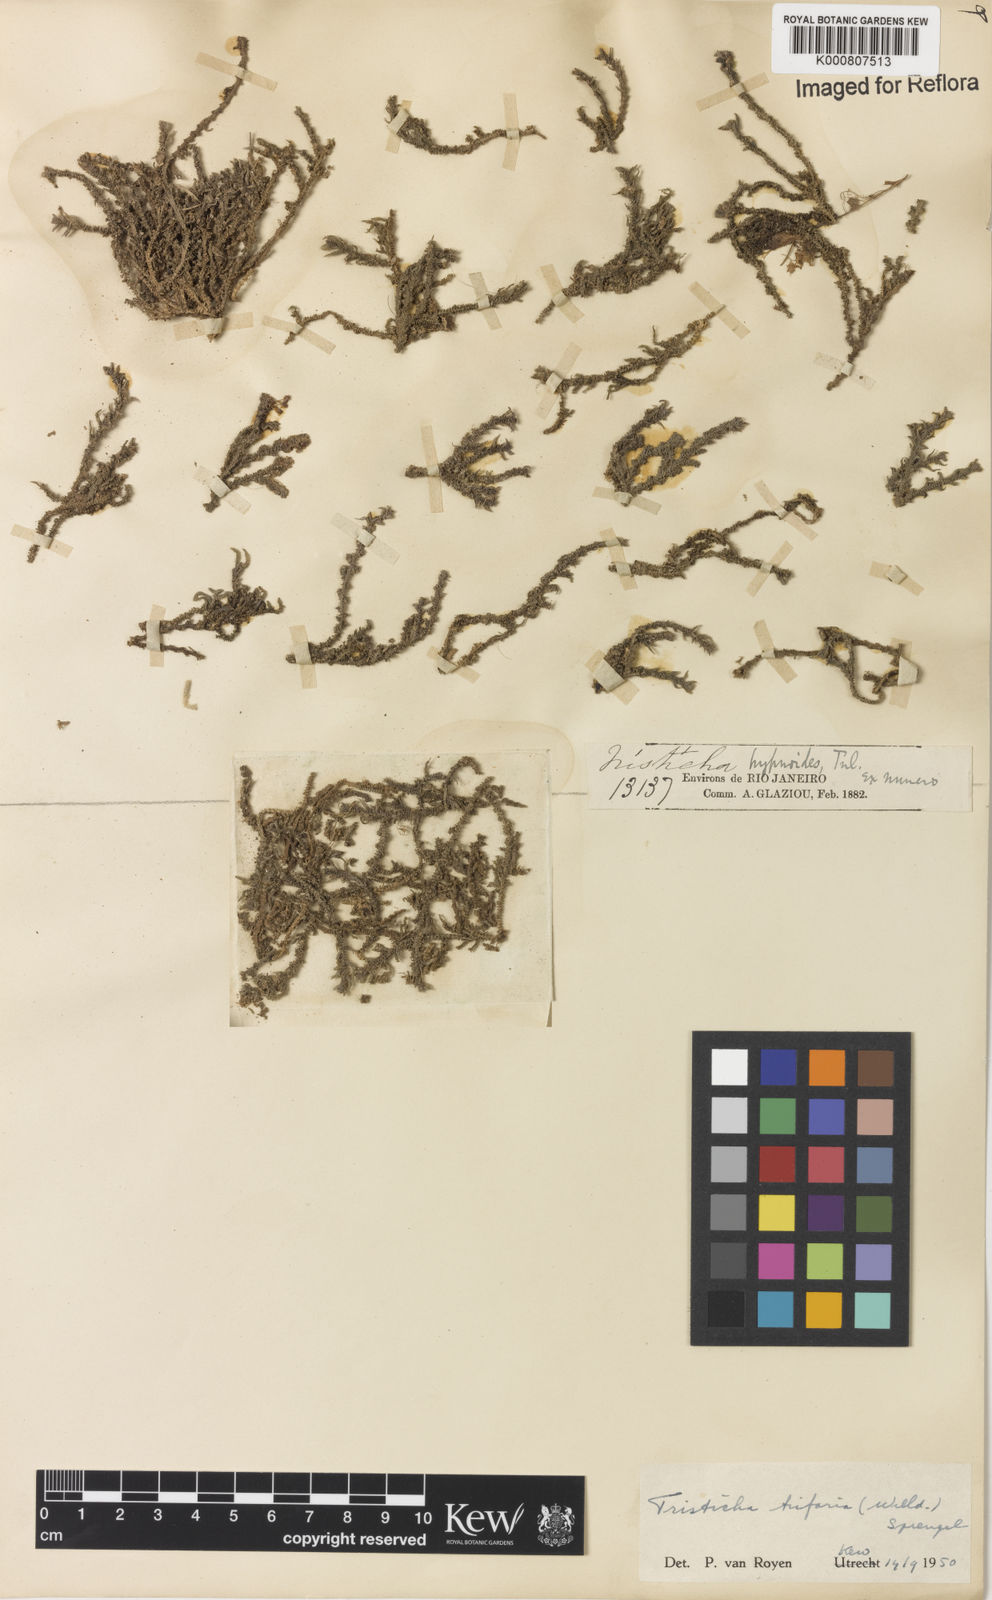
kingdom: Plantae
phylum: Tracheophyta
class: Magnoliopsida
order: Malpighiales
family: Podostemaceae
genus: Tristicha
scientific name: Tristicha trifaria
